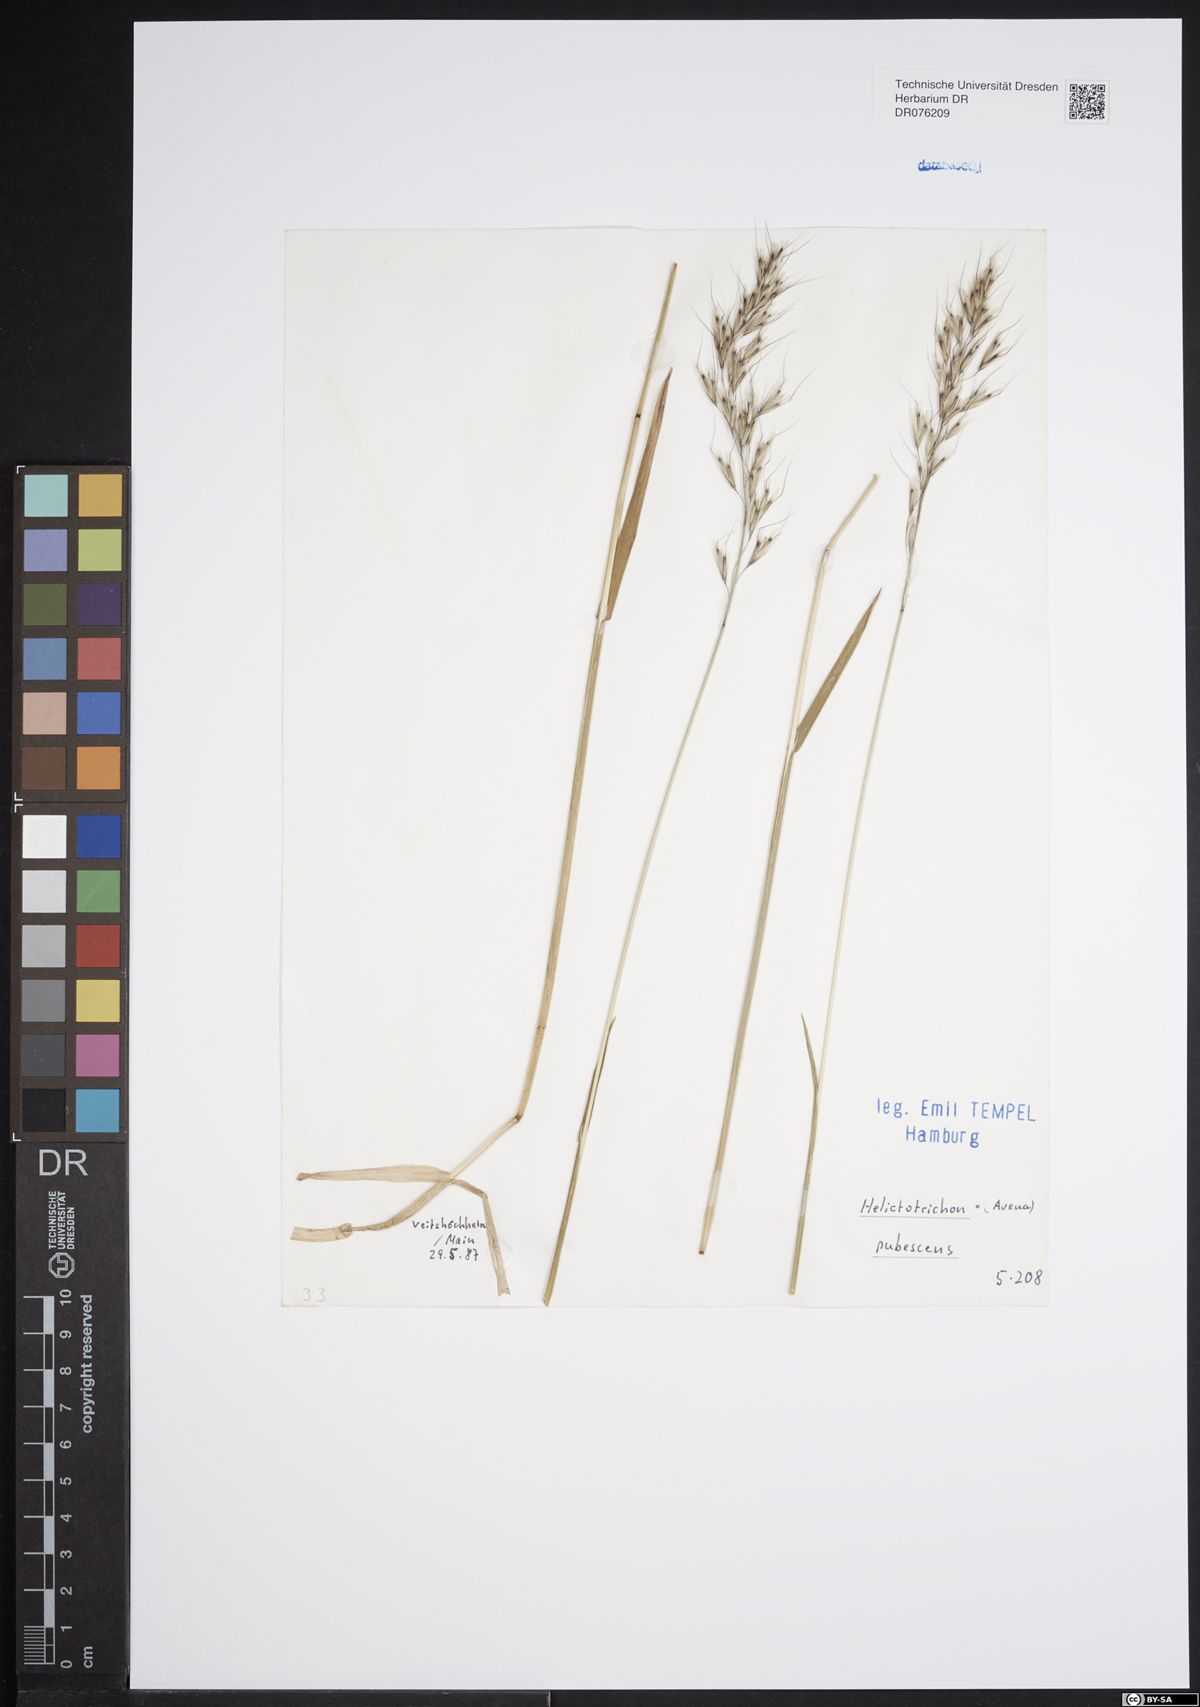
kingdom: Plantae
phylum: Tracheophyta
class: Liliopsida
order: Poales
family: Poaceae
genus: Avenula
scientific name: Avenula pubescens
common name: Downy alpine oatgrass
